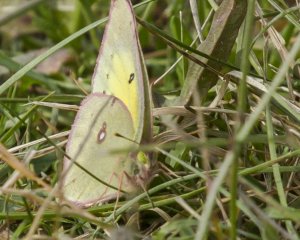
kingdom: Animalia
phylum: Arthropoda
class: Insecta
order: Lepidoptera
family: Pieridae
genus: Colias
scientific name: Colias philodice
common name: Clouded Sulphur
